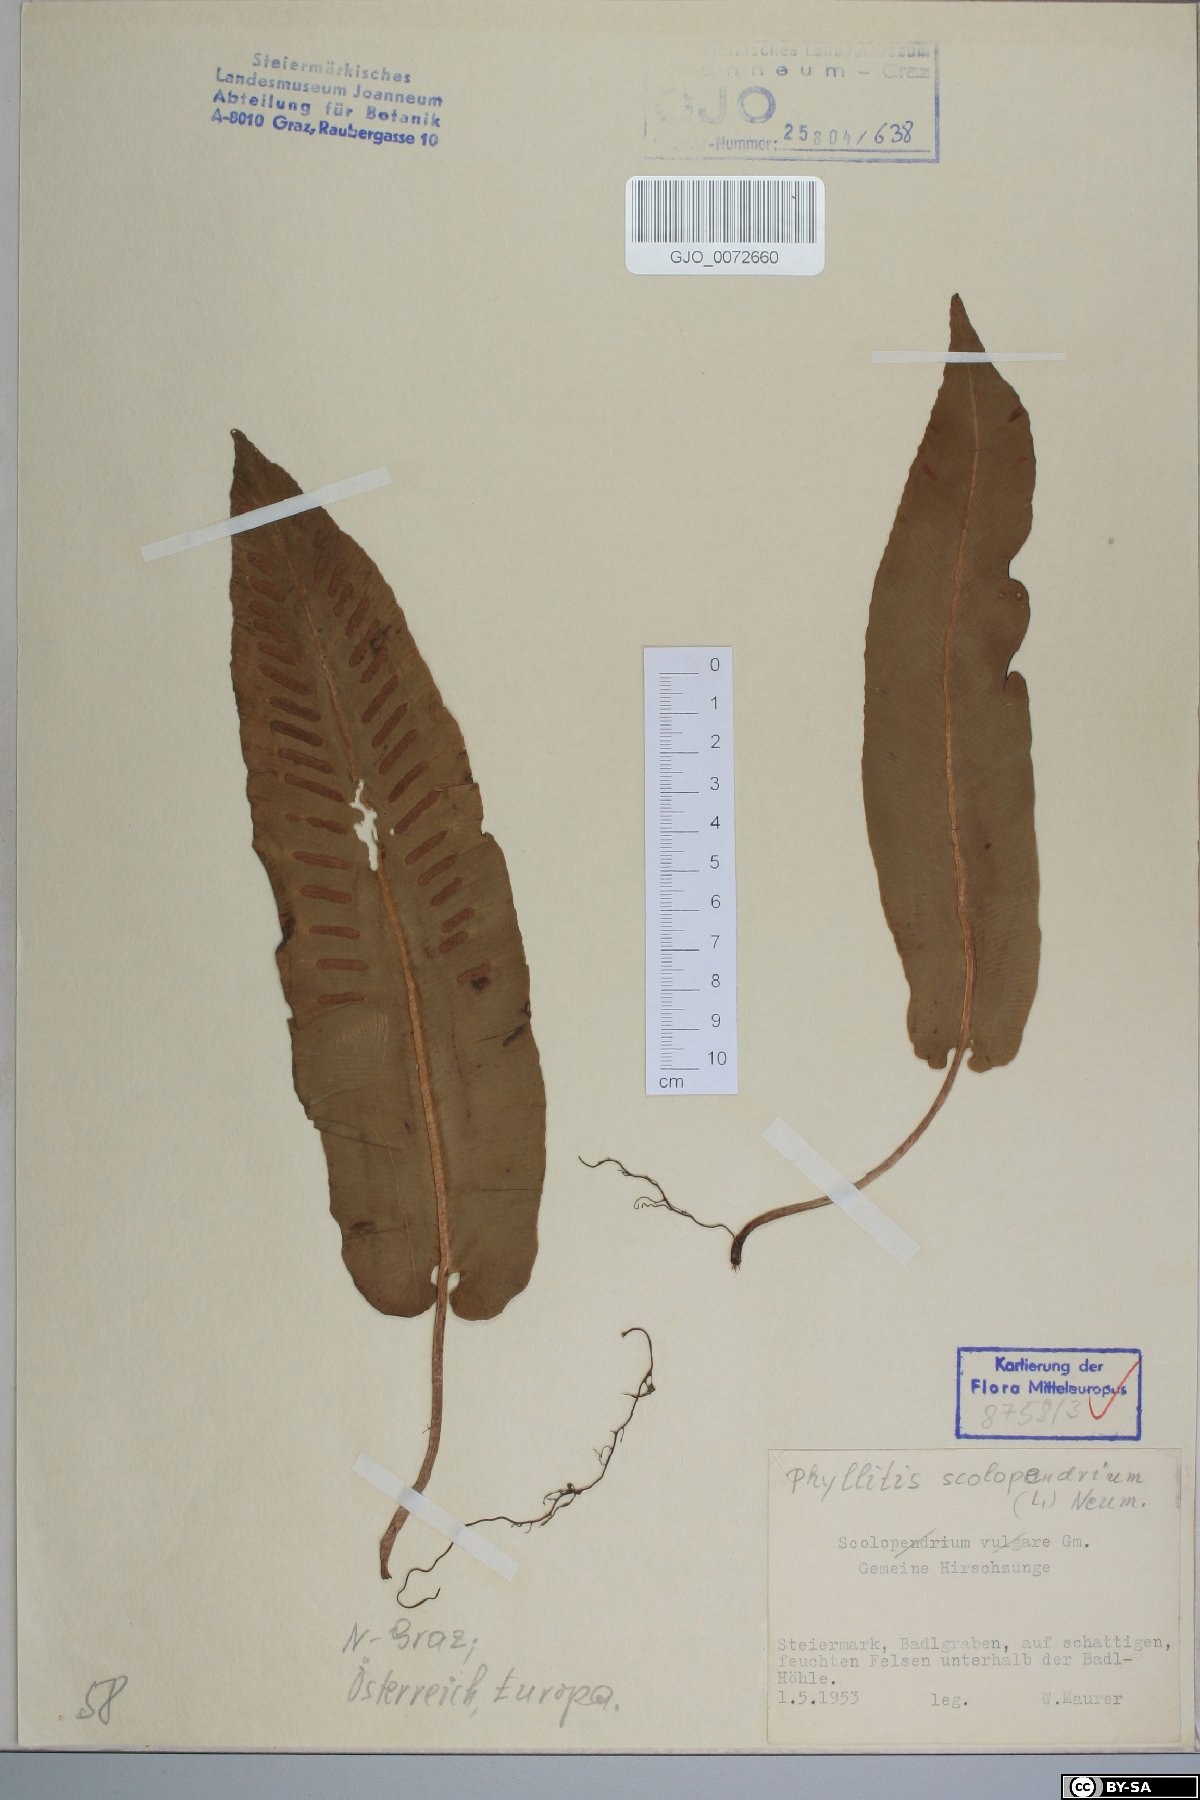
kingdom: Plantae
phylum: Tracheophyta
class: Polypodiopsida
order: Polypodiales
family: Aspleniaceae
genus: Asplenium
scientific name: Asplenium scolopendrium
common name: Hart's-tongue fern
